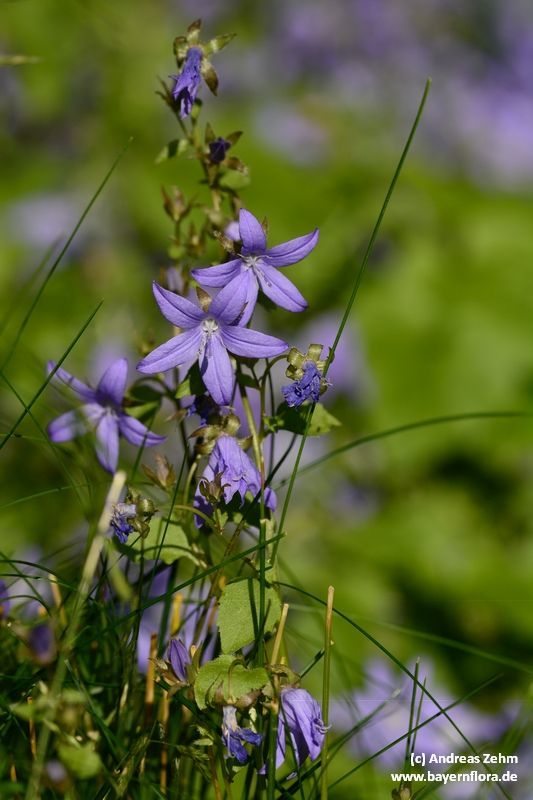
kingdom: Plantae
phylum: Tracheophyta
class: Magnoliopsida
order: Asterales
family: Campanulaceae
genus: Campanula
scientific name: Campanula poscharskyana
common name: Trailing bellflower
